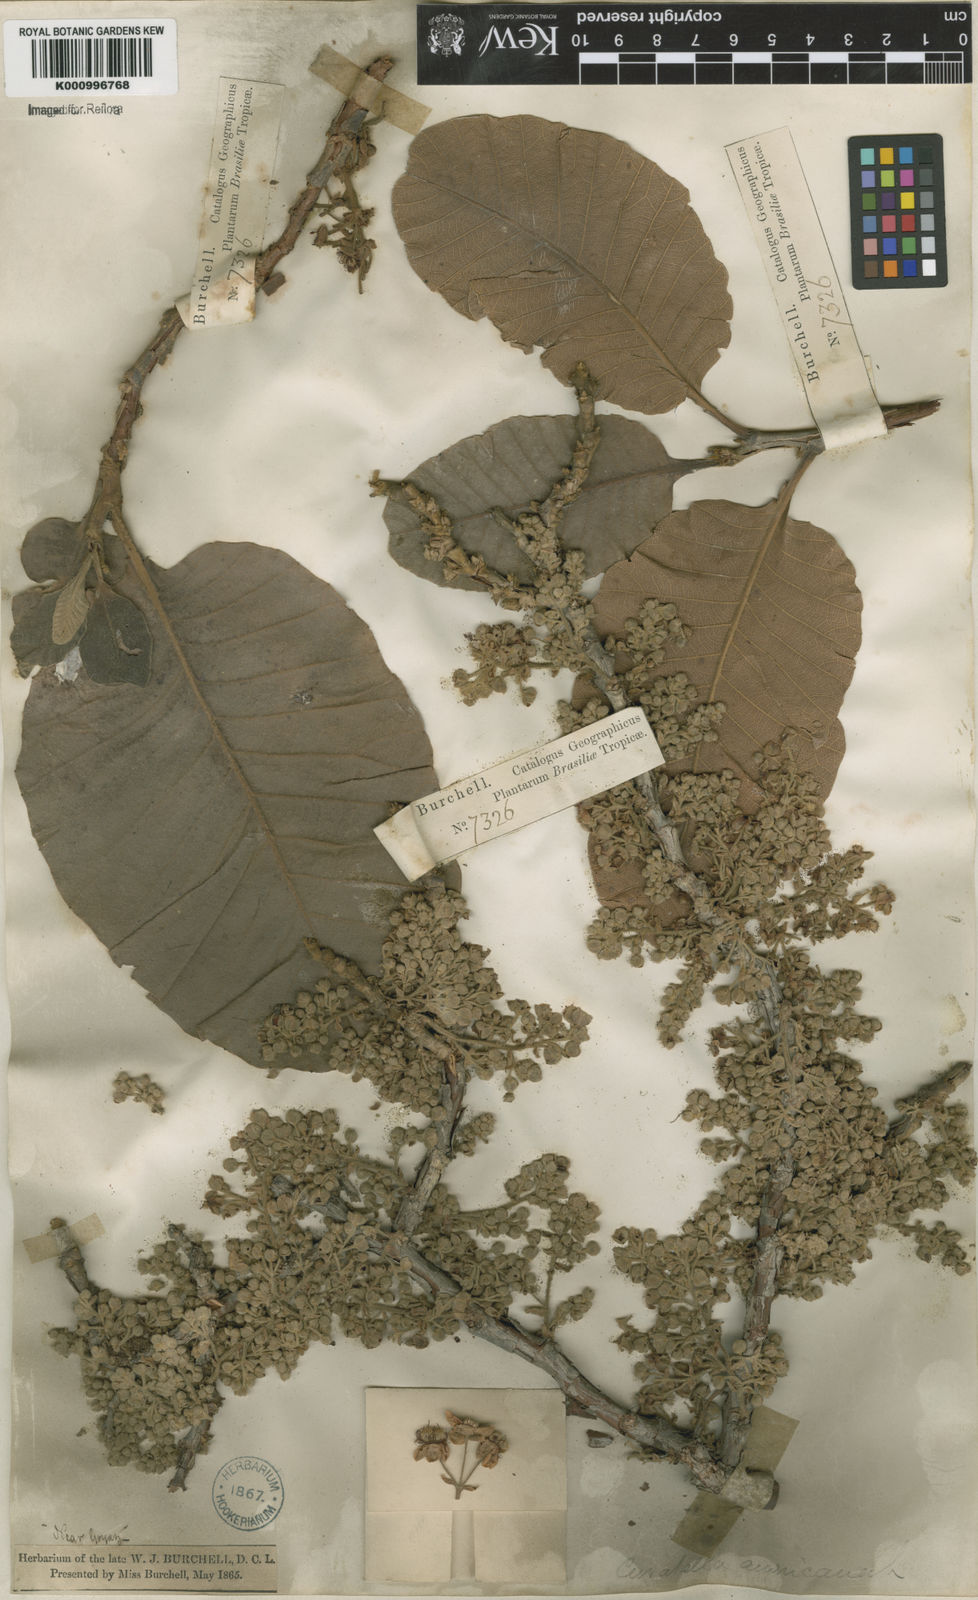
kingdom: Plantae
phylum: Tracheophyta
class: Magnoliopsida
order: Dilleniales
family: Dilleniaceae
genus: Curatella
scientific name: Curatella americana
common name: Sandpaper tree
